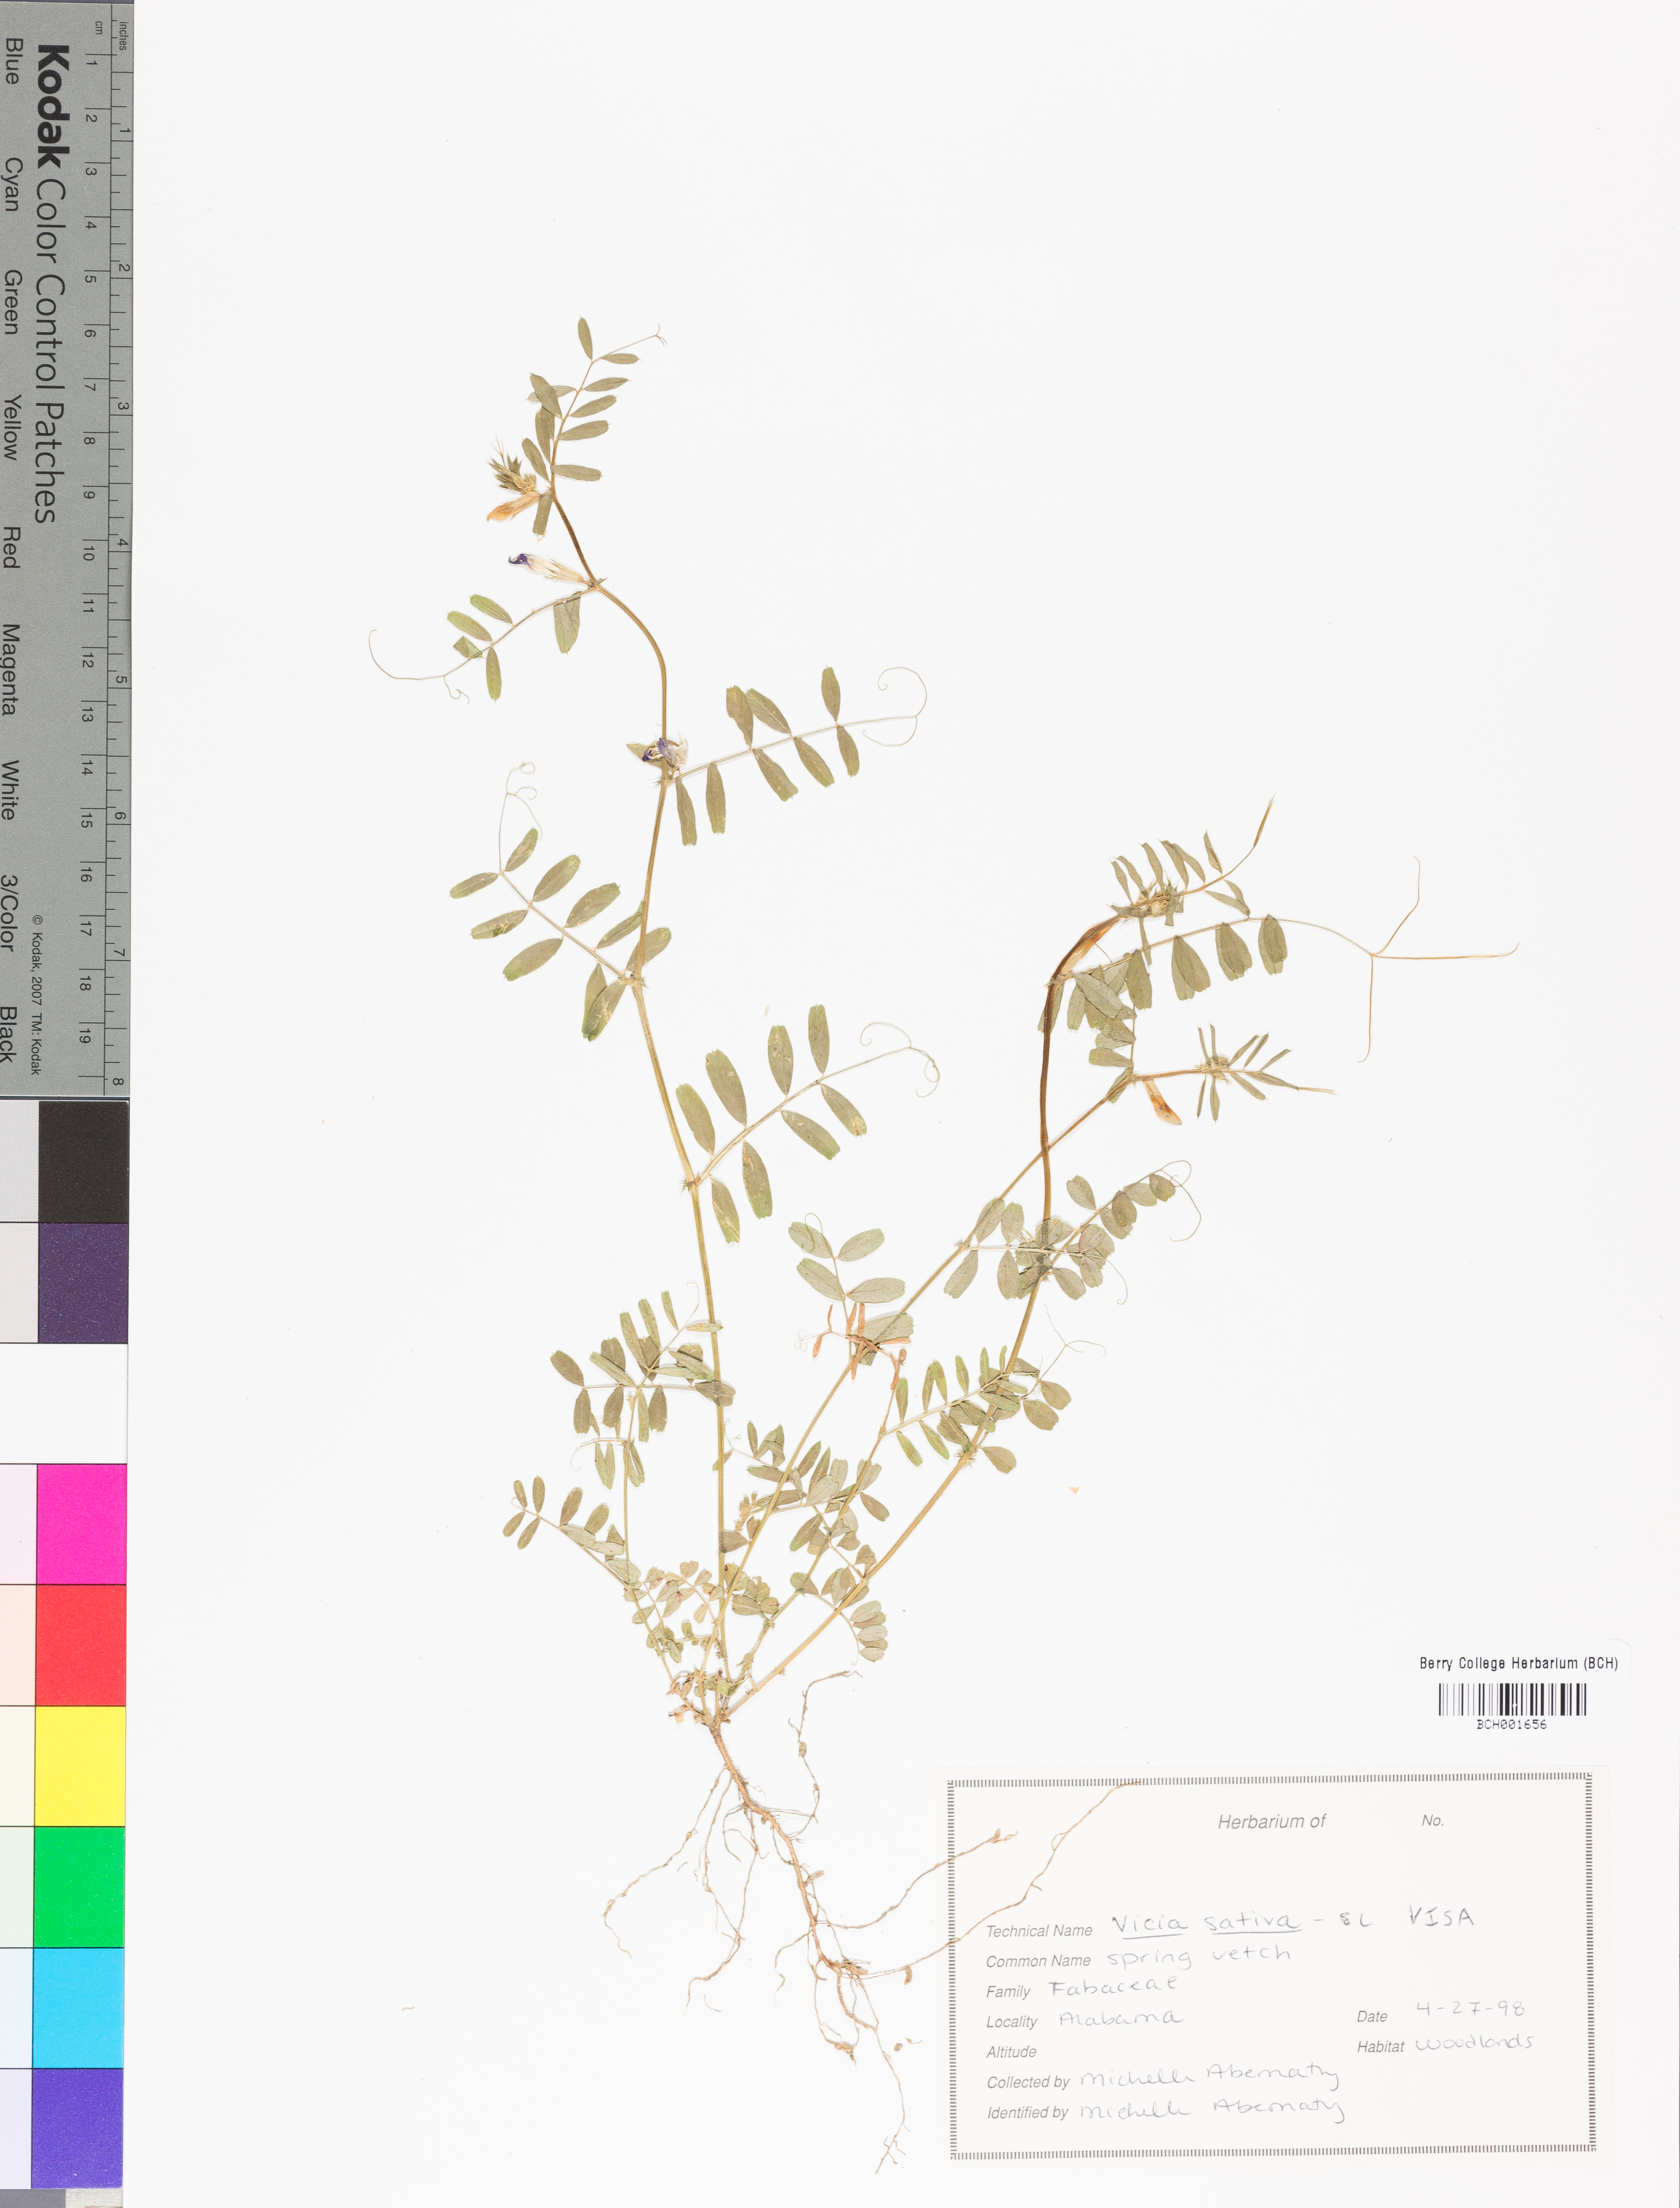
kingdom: Plantae
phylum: Tracheophyta
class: Magnoliopsida
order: Fabales
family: Fabaceae
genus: Vicia
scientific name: Vicia sativa
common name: Garden vetch
